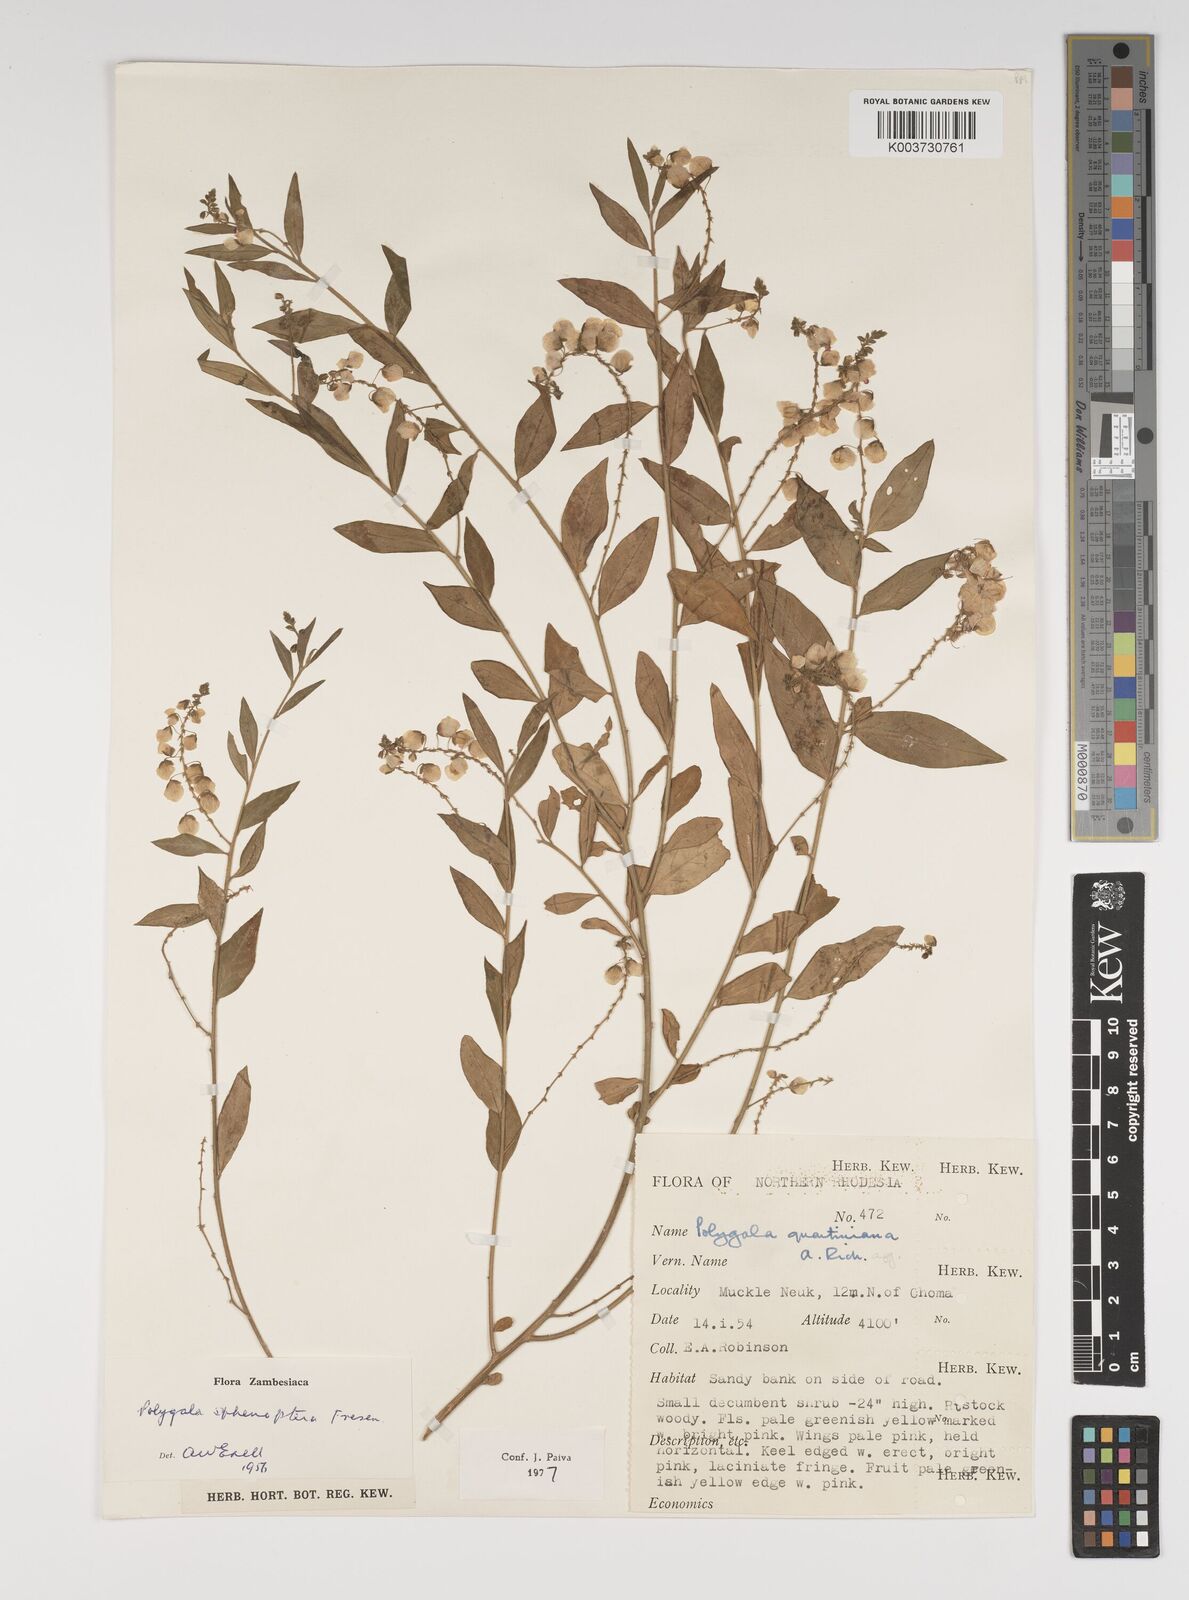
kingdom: Plantae
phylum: Tracheophyta
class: Magnoliopsida
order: Fabales
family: Polygalaceae
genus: Polygala
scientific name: Polygala sphenoptera
